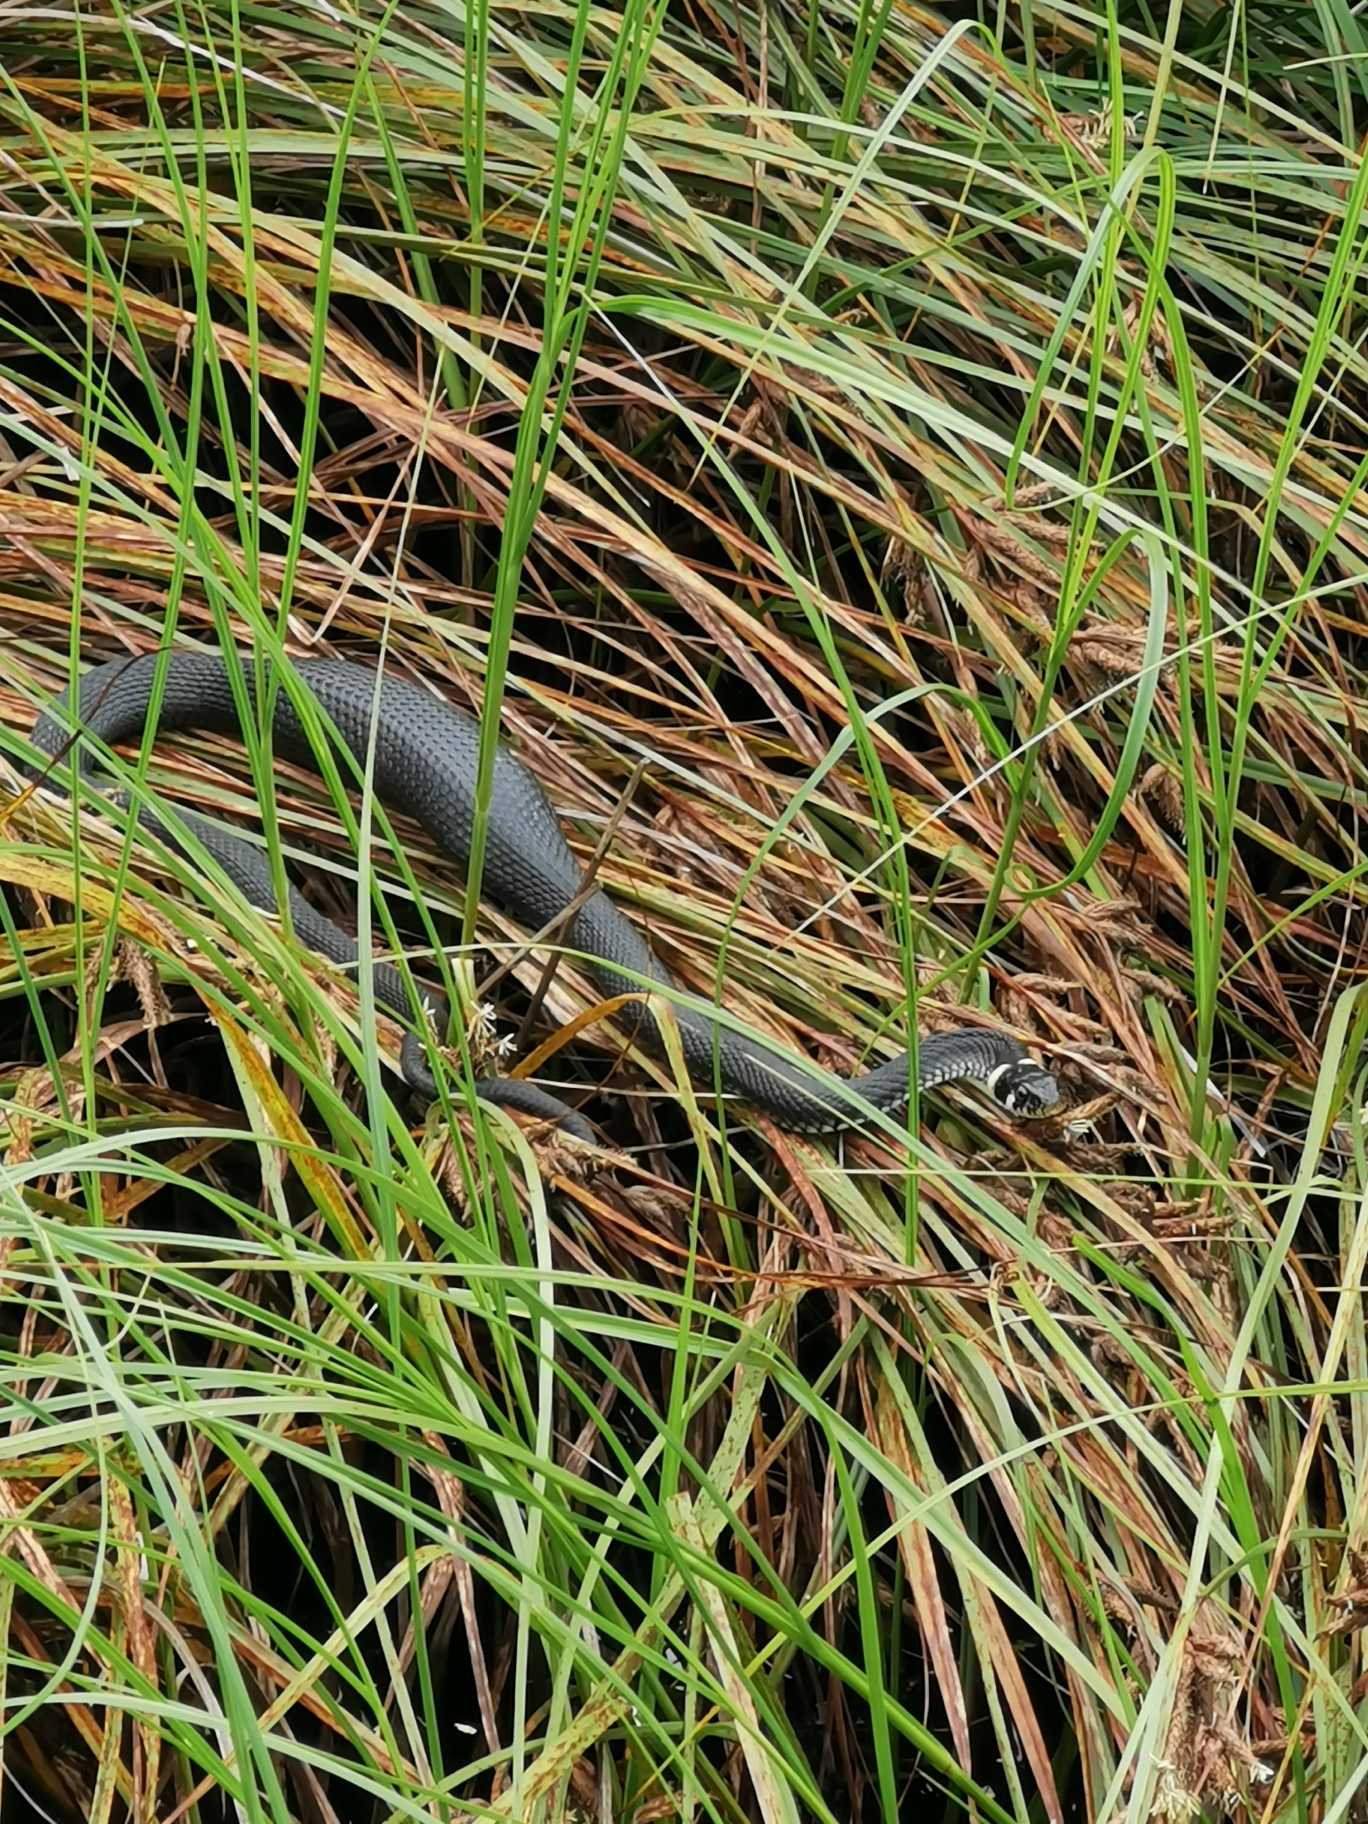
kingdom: Animalia
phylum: Chordata
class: Squamata
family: Colubridae
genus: Natrix
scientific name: Natrix natrix
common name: Snog
